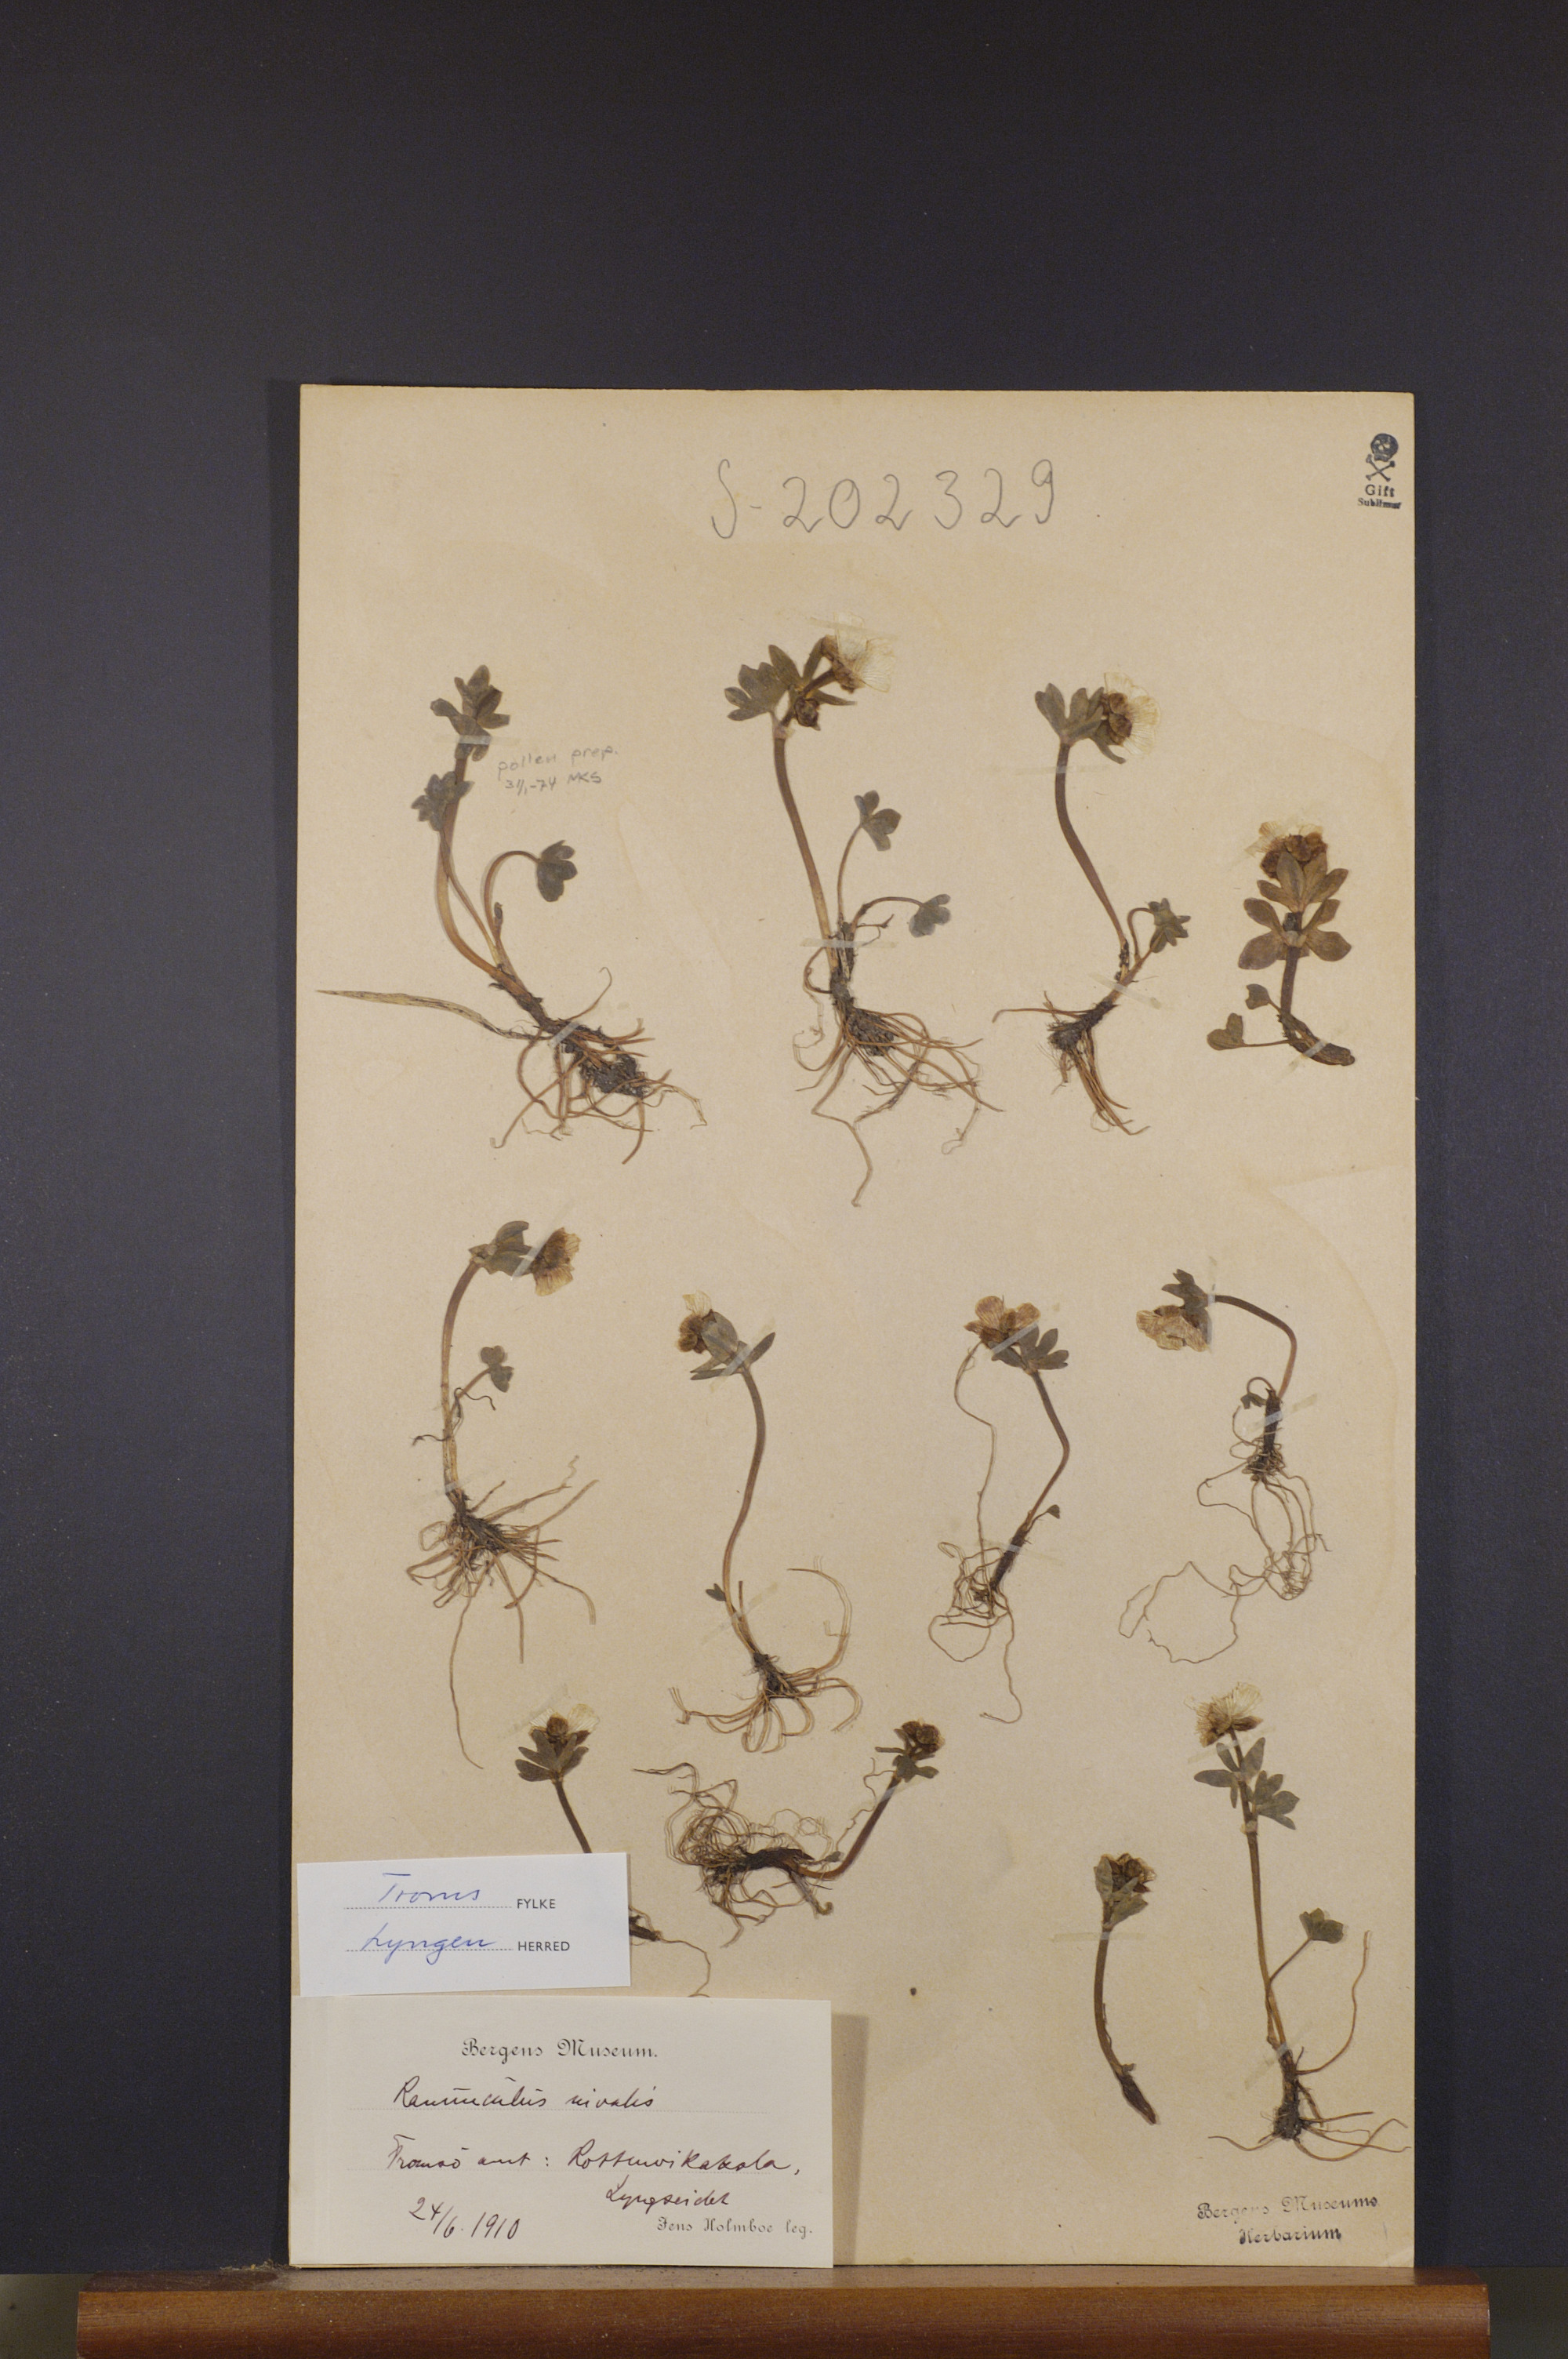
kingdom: Plantae
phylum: Tracheophyta
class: Magnoliopsida
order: Ranunculales
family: Ranunculaceae
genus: Ranunculus
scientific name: Ranunculus nivalis
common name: Snow buttercup
